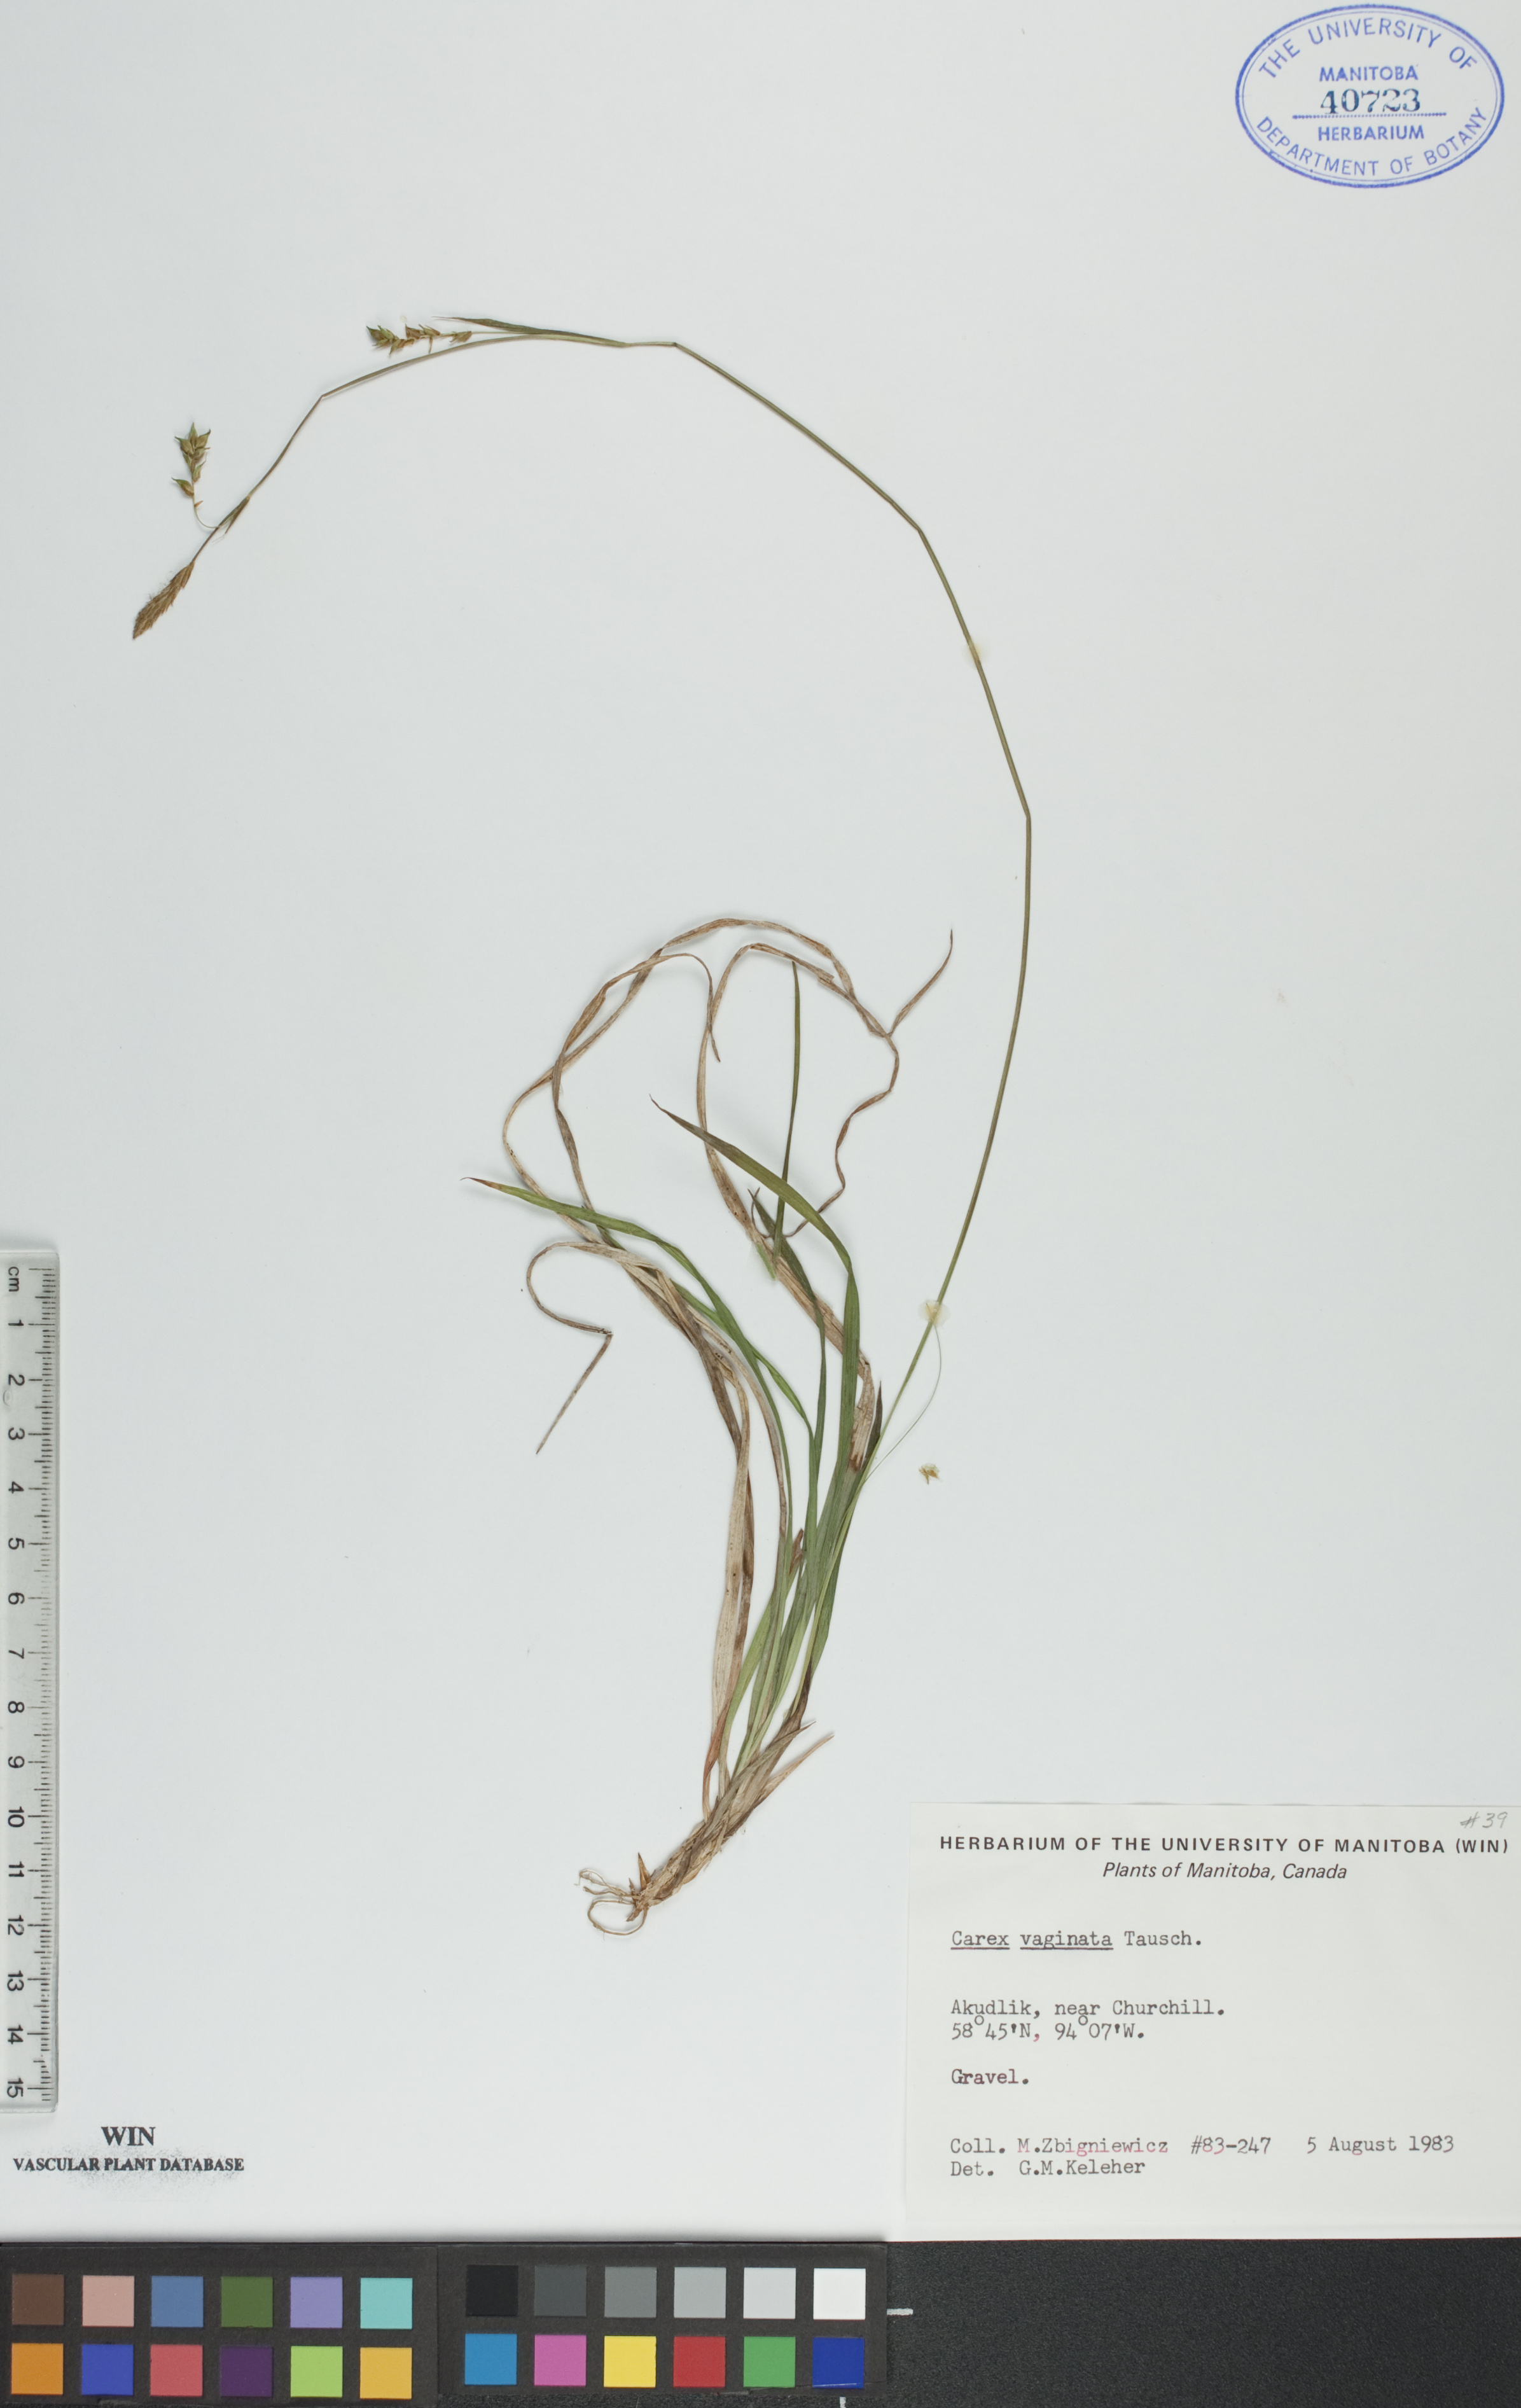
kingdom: Plantae
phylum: Tracheophyta
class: Liliopsida
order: Poales
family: Cyperaceae
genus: Carex
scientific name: Carex vaginata
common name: Sheathed sedge
